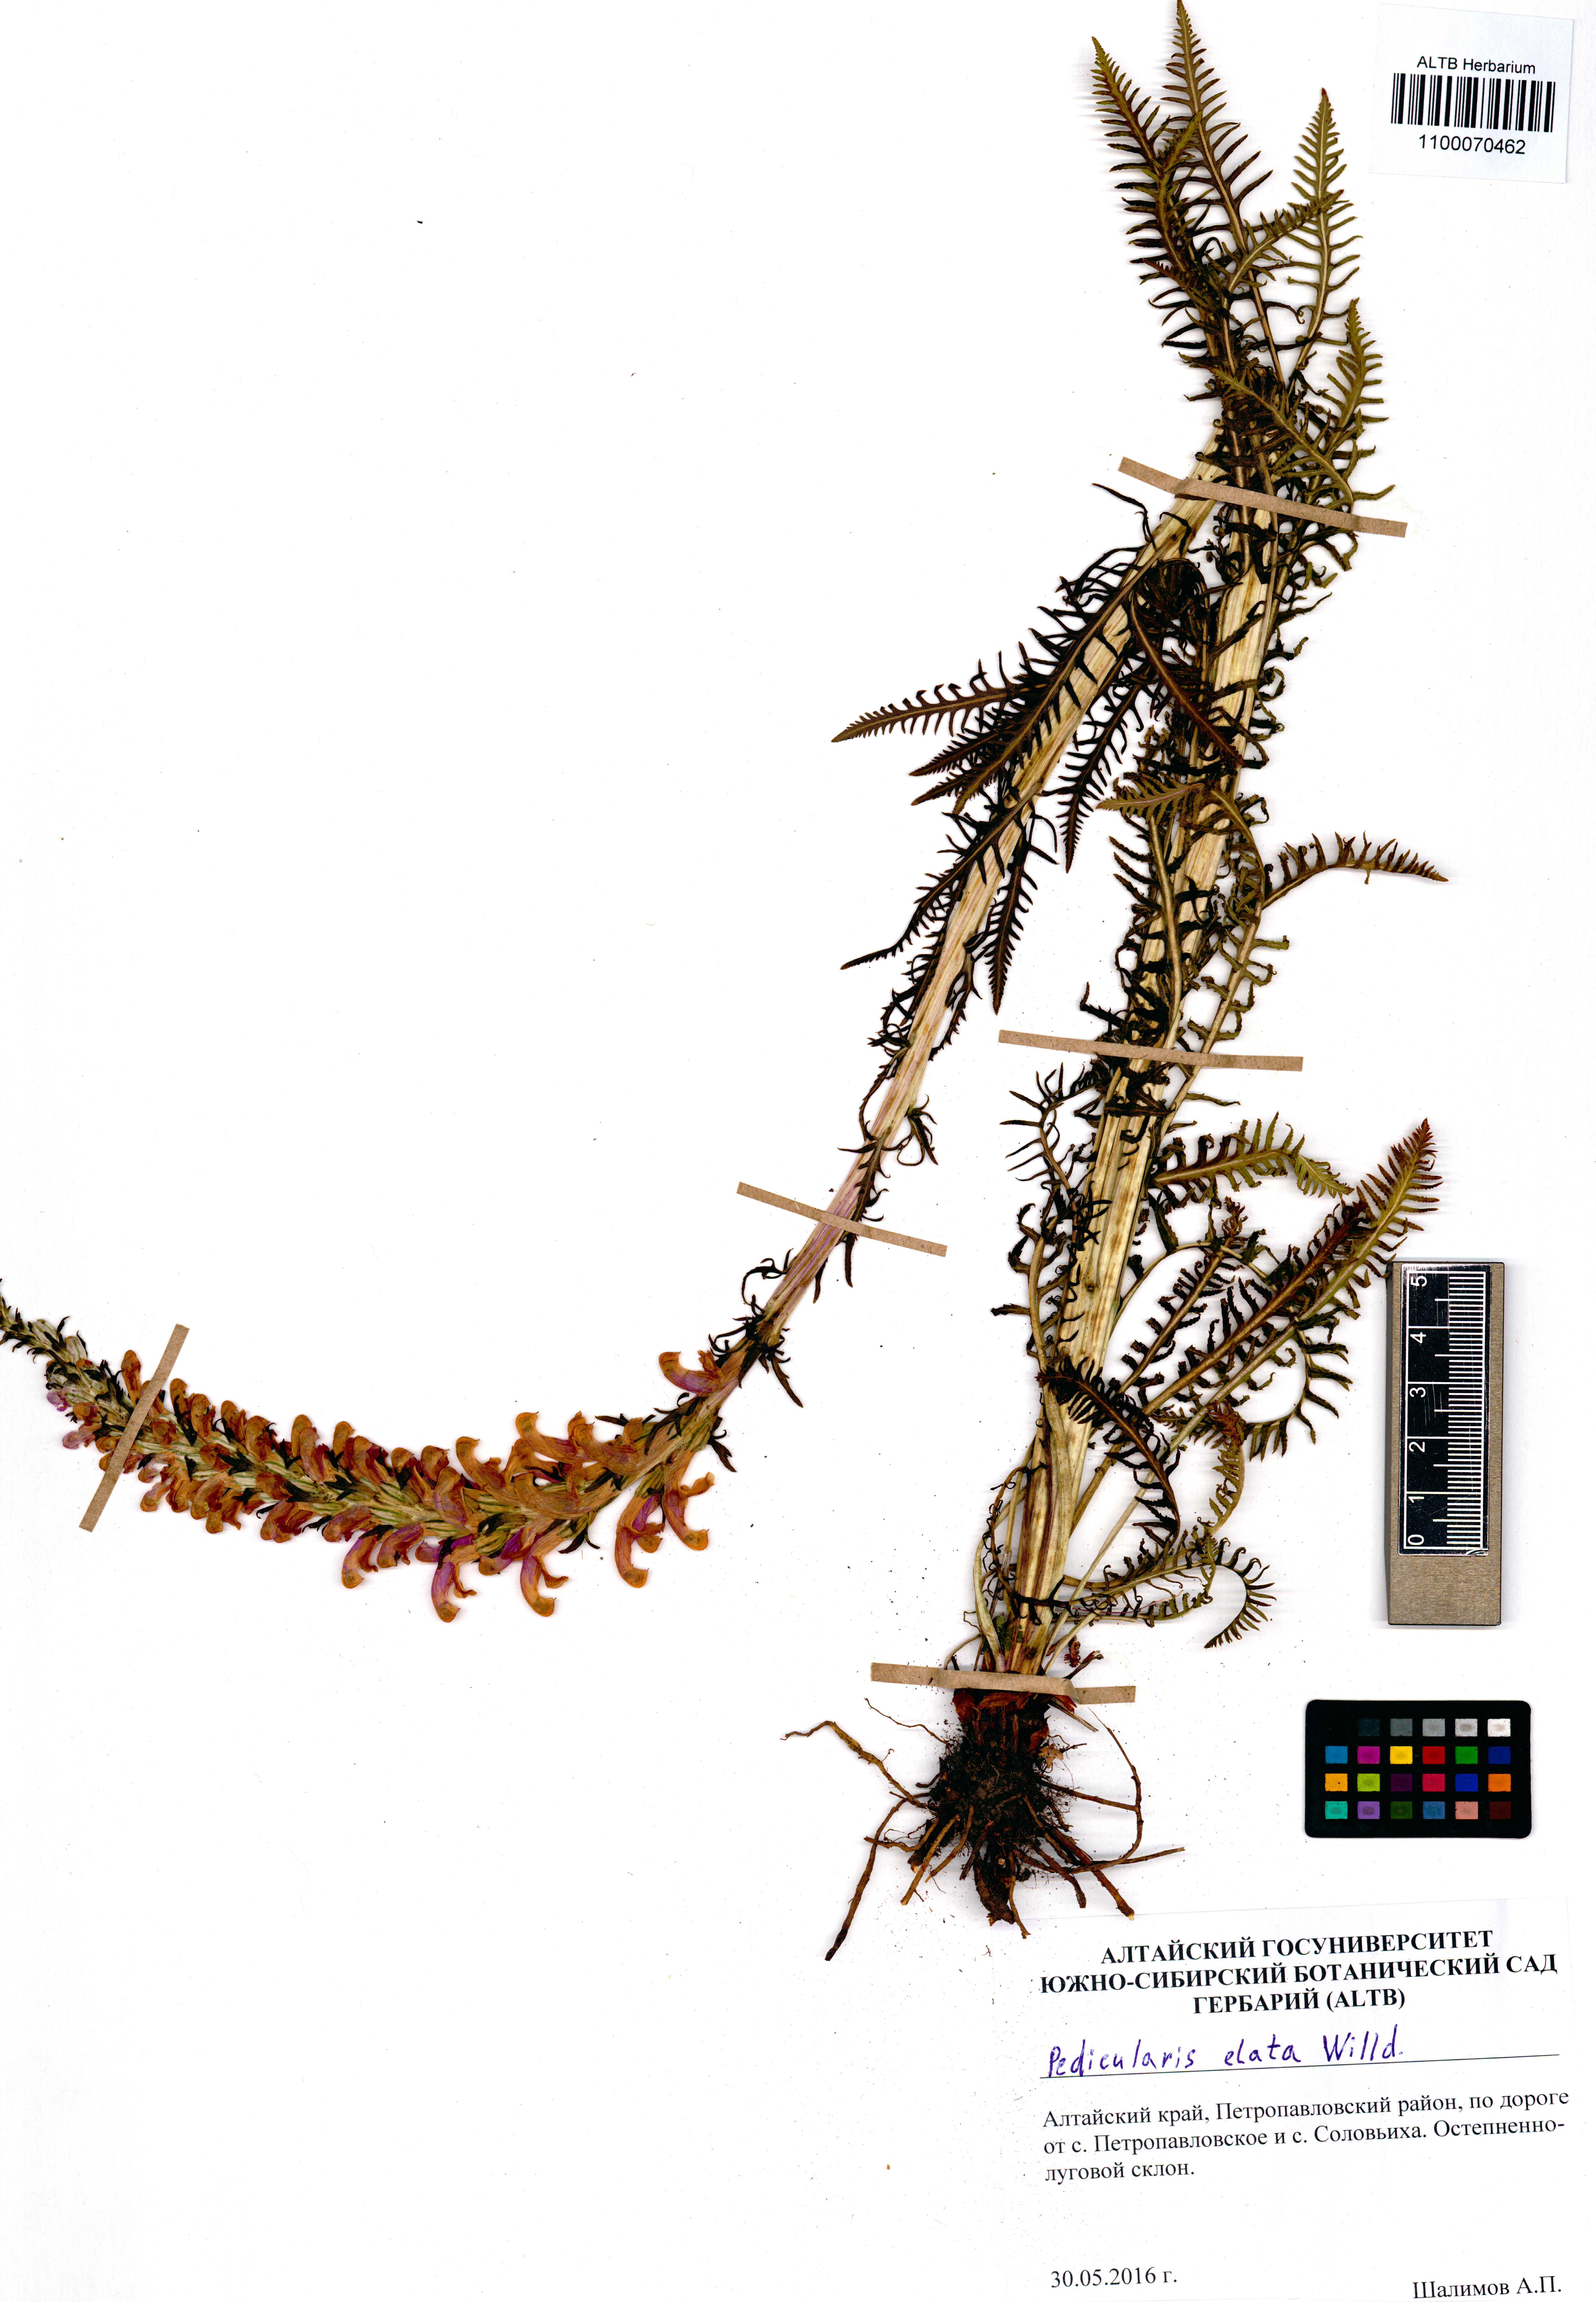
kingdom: Plantae
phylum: Tracheophyta
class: Magnoliopsida
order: Lamiales
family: Orobanchaceae
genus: Pedicularis
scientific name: Pedicularis elata
